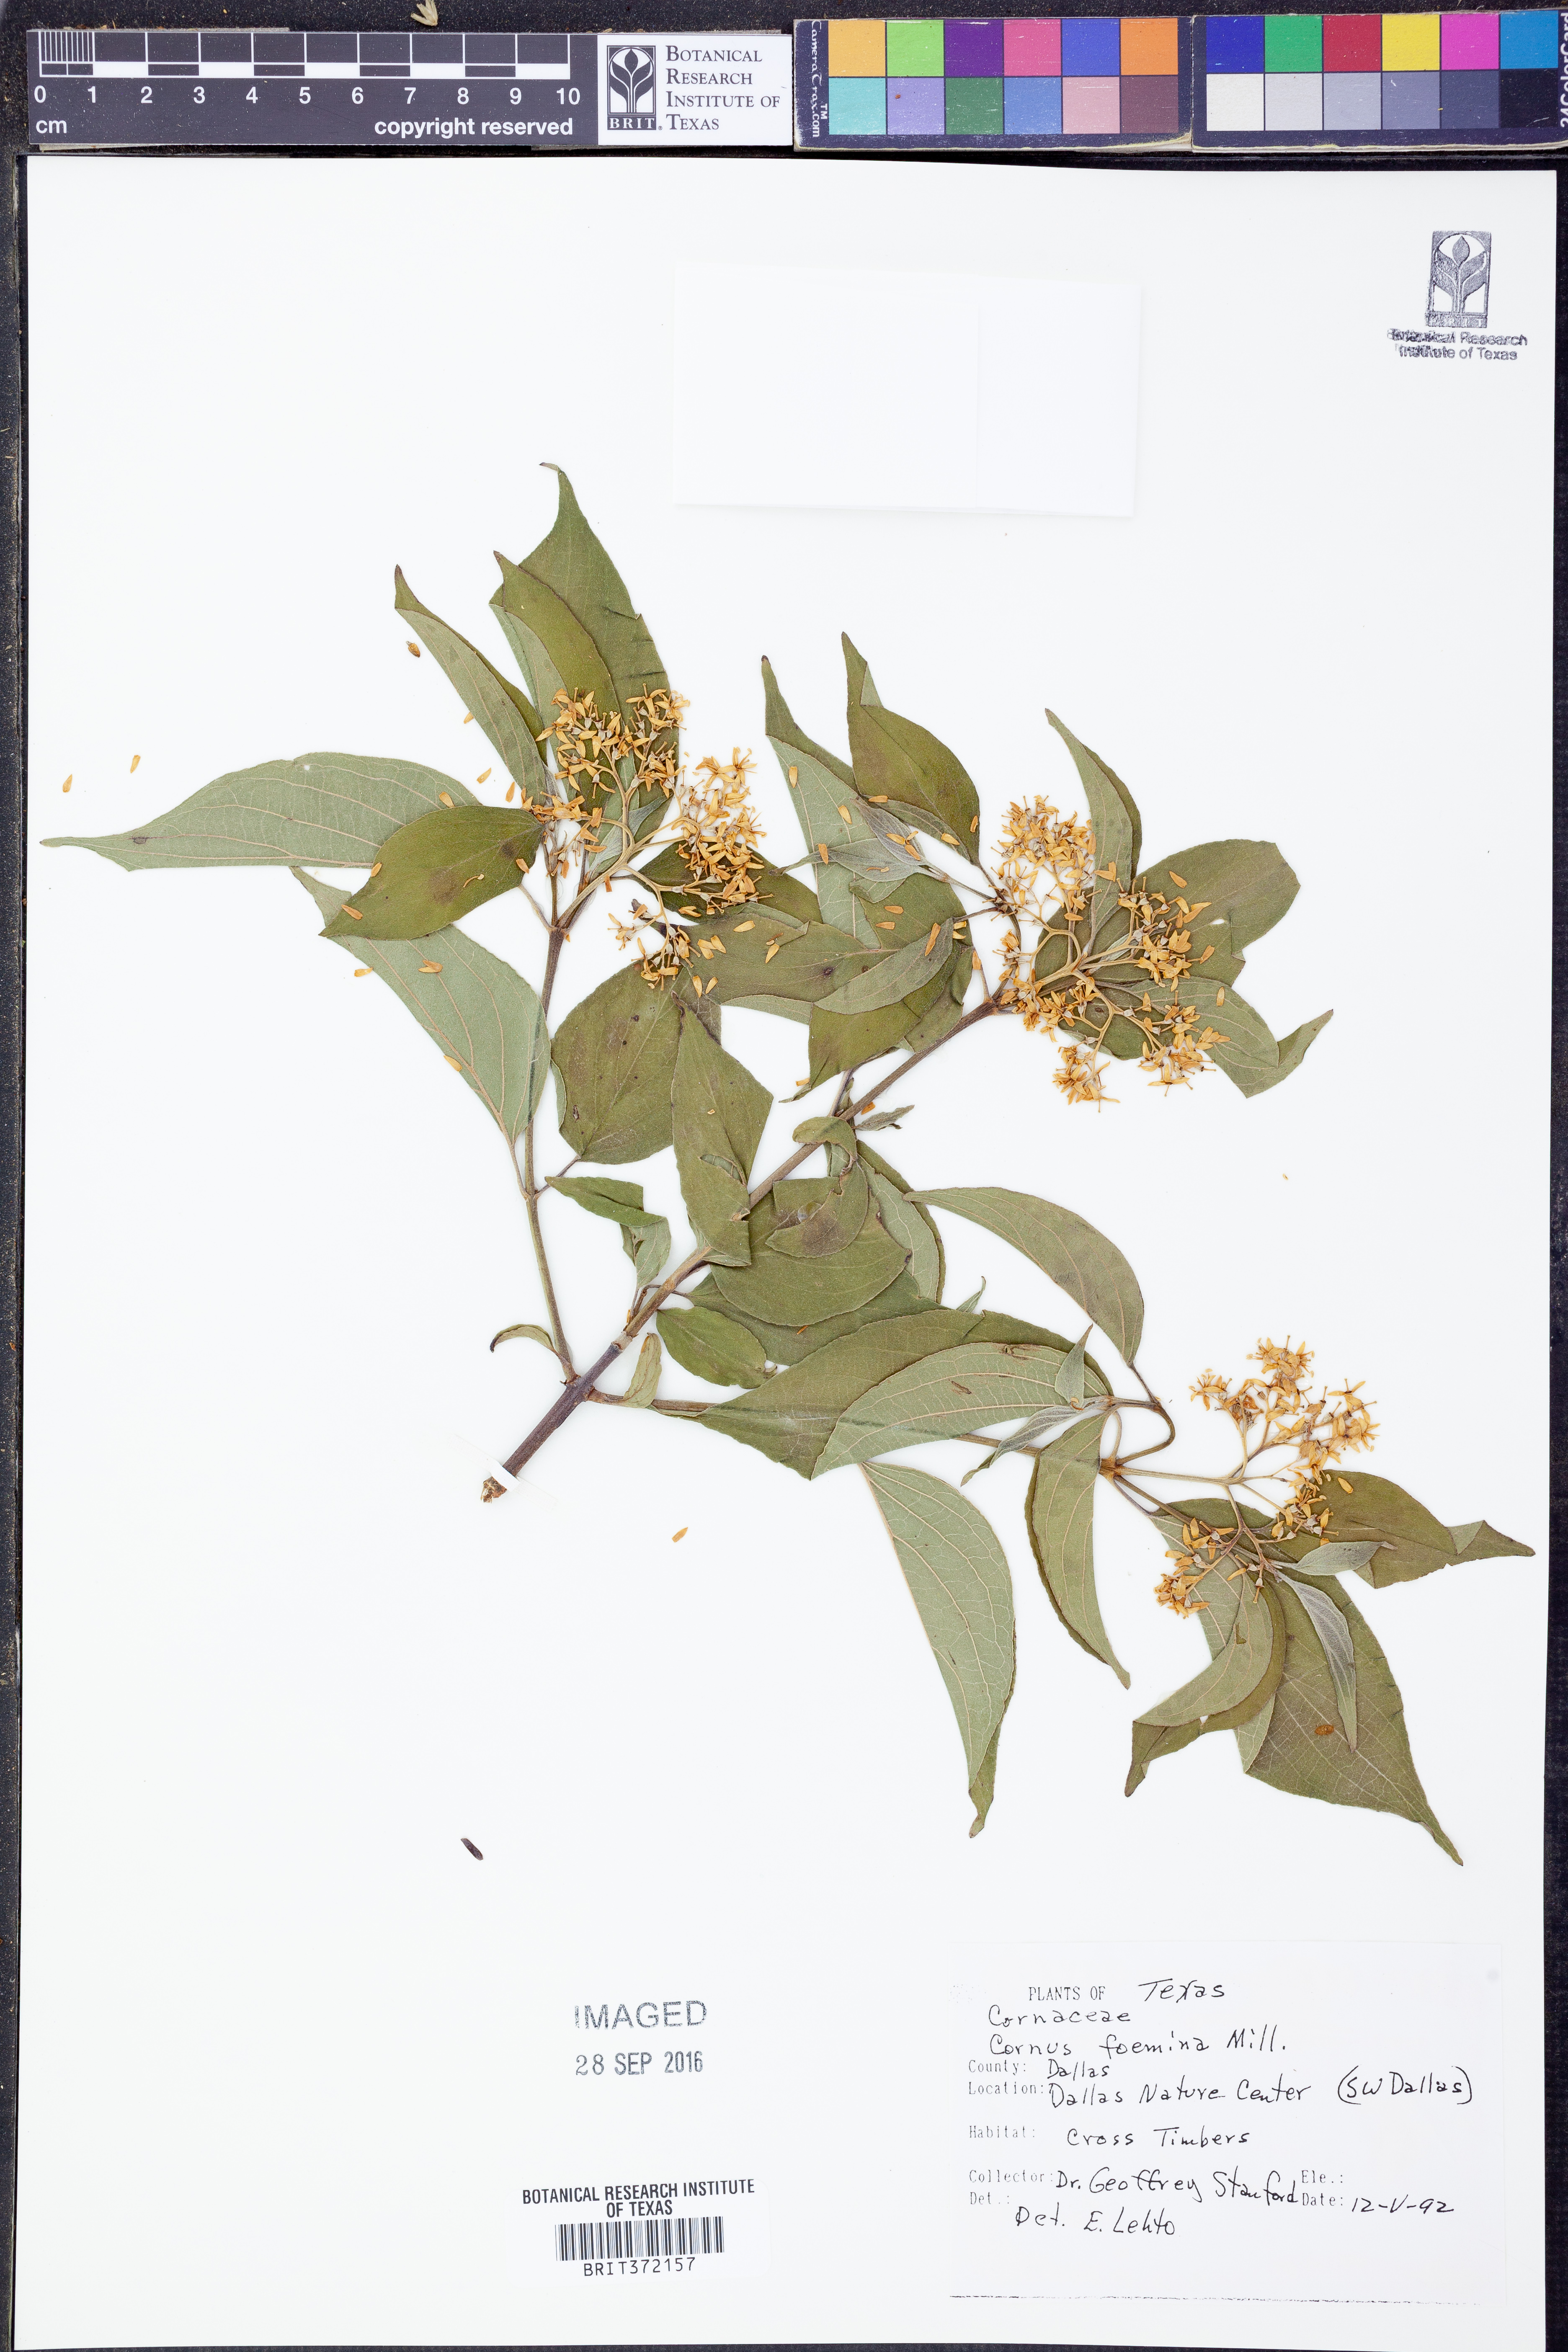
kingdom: Plantae
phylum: Tracheophyta
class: Magnoliopsida
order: Cornales
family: Cornaceae
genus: Cornus
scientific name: Cornus foemina
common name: Swamp dogwood
